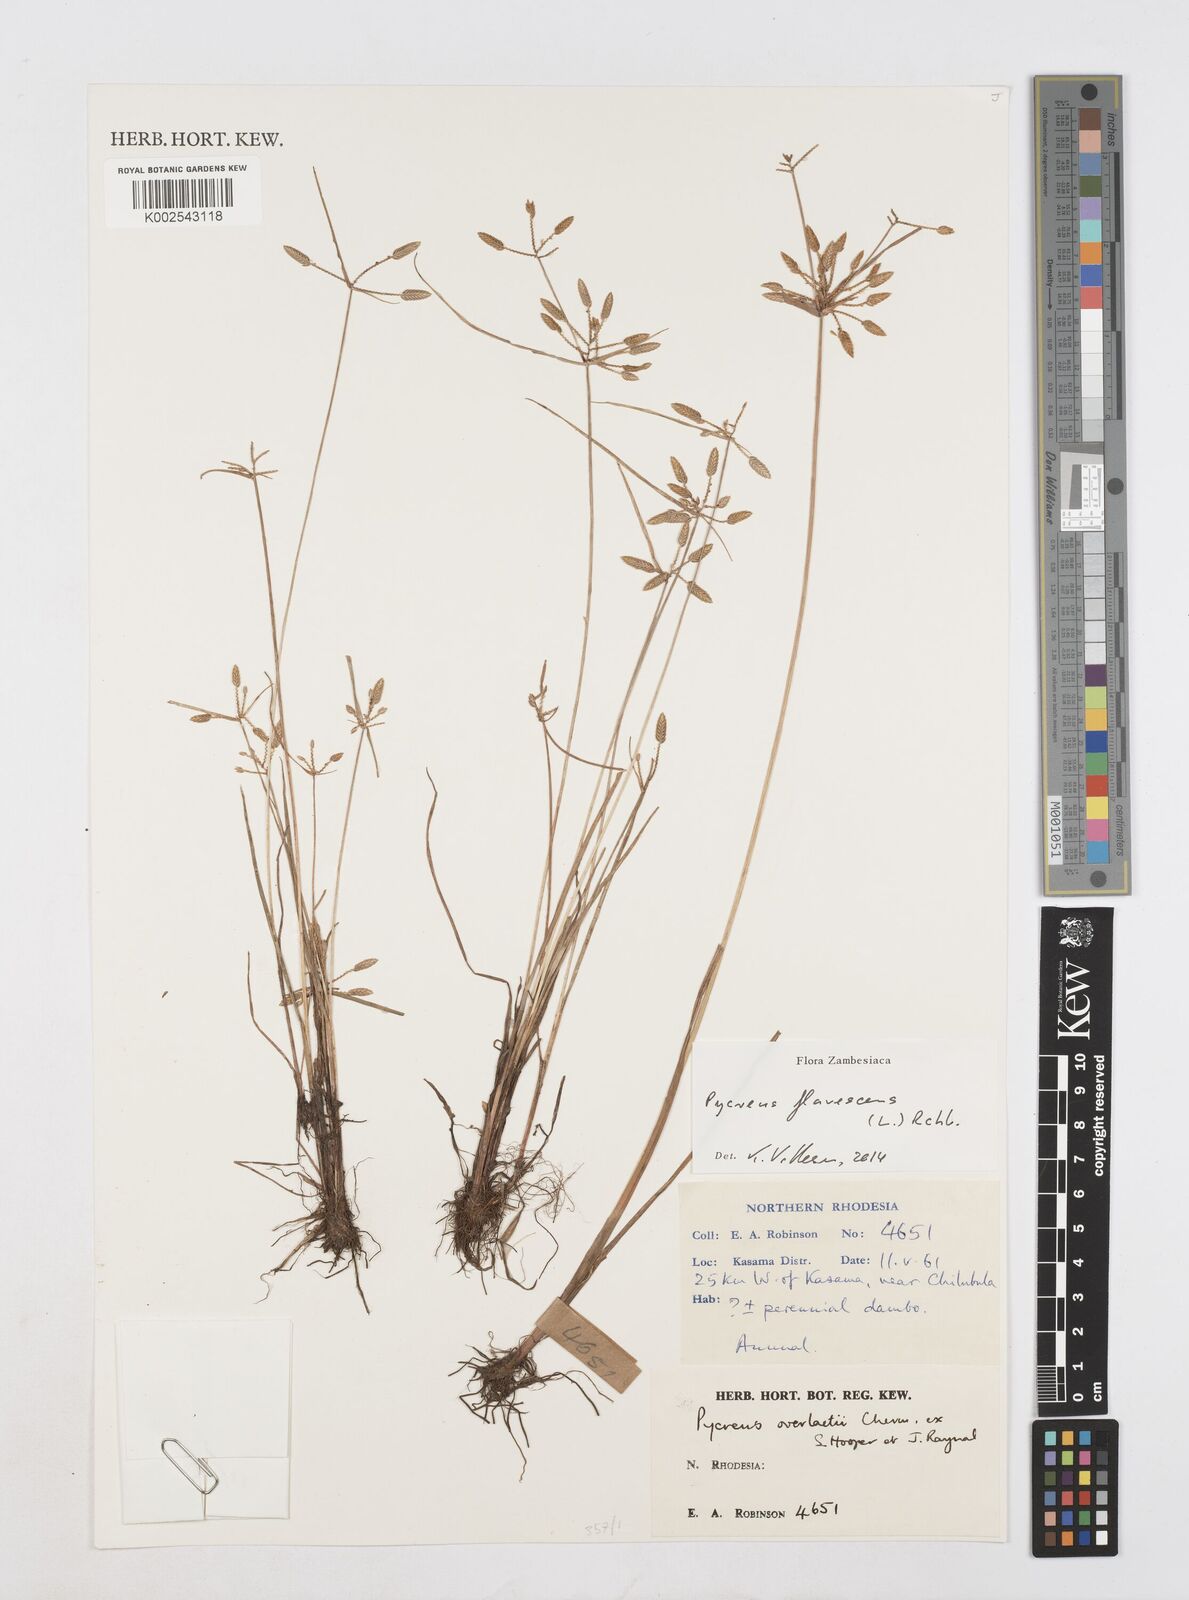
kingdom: Plantae
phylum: Tracheophyta
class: Liliopsida
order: Poales
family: Cyperaceae
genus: Cyperus
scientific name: Cyperus flavescens
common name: Yellow galingale
